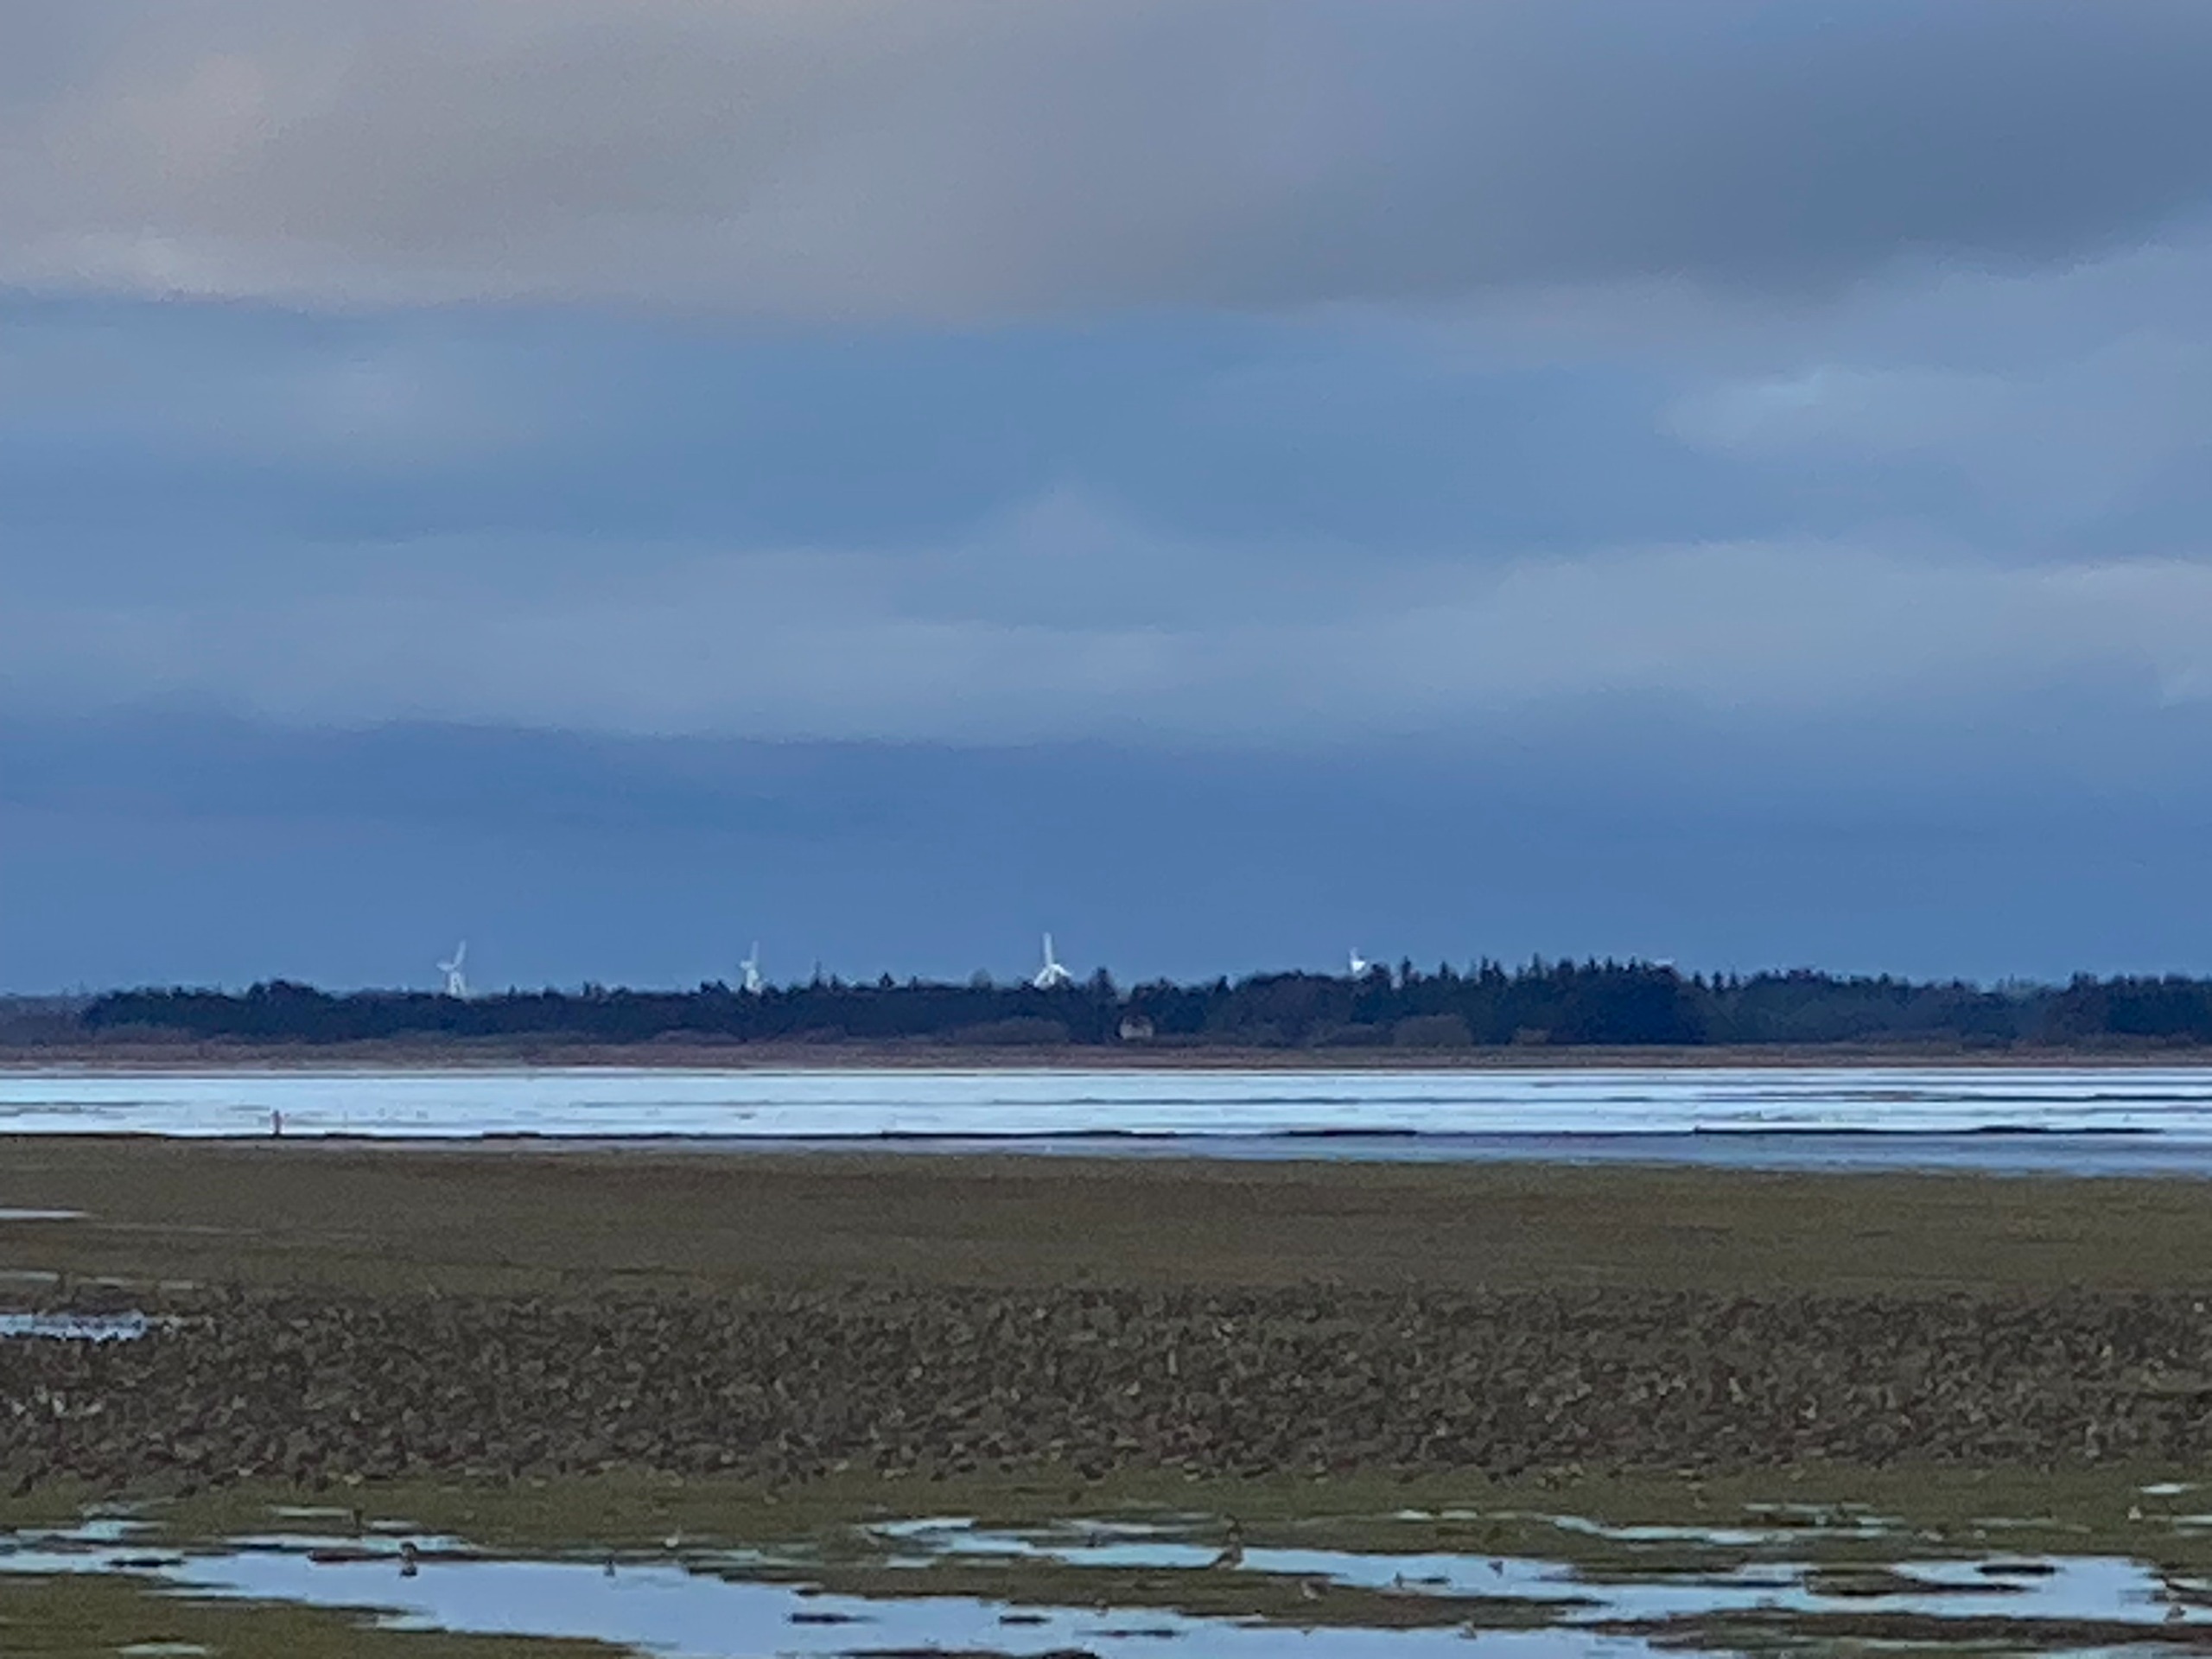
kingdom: Animalia
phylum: Chordata
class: Aves
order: Charadriiformes
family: Charadriidae
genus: Pluvialis
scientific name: Pluvialis apricaria
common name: Hjejle
